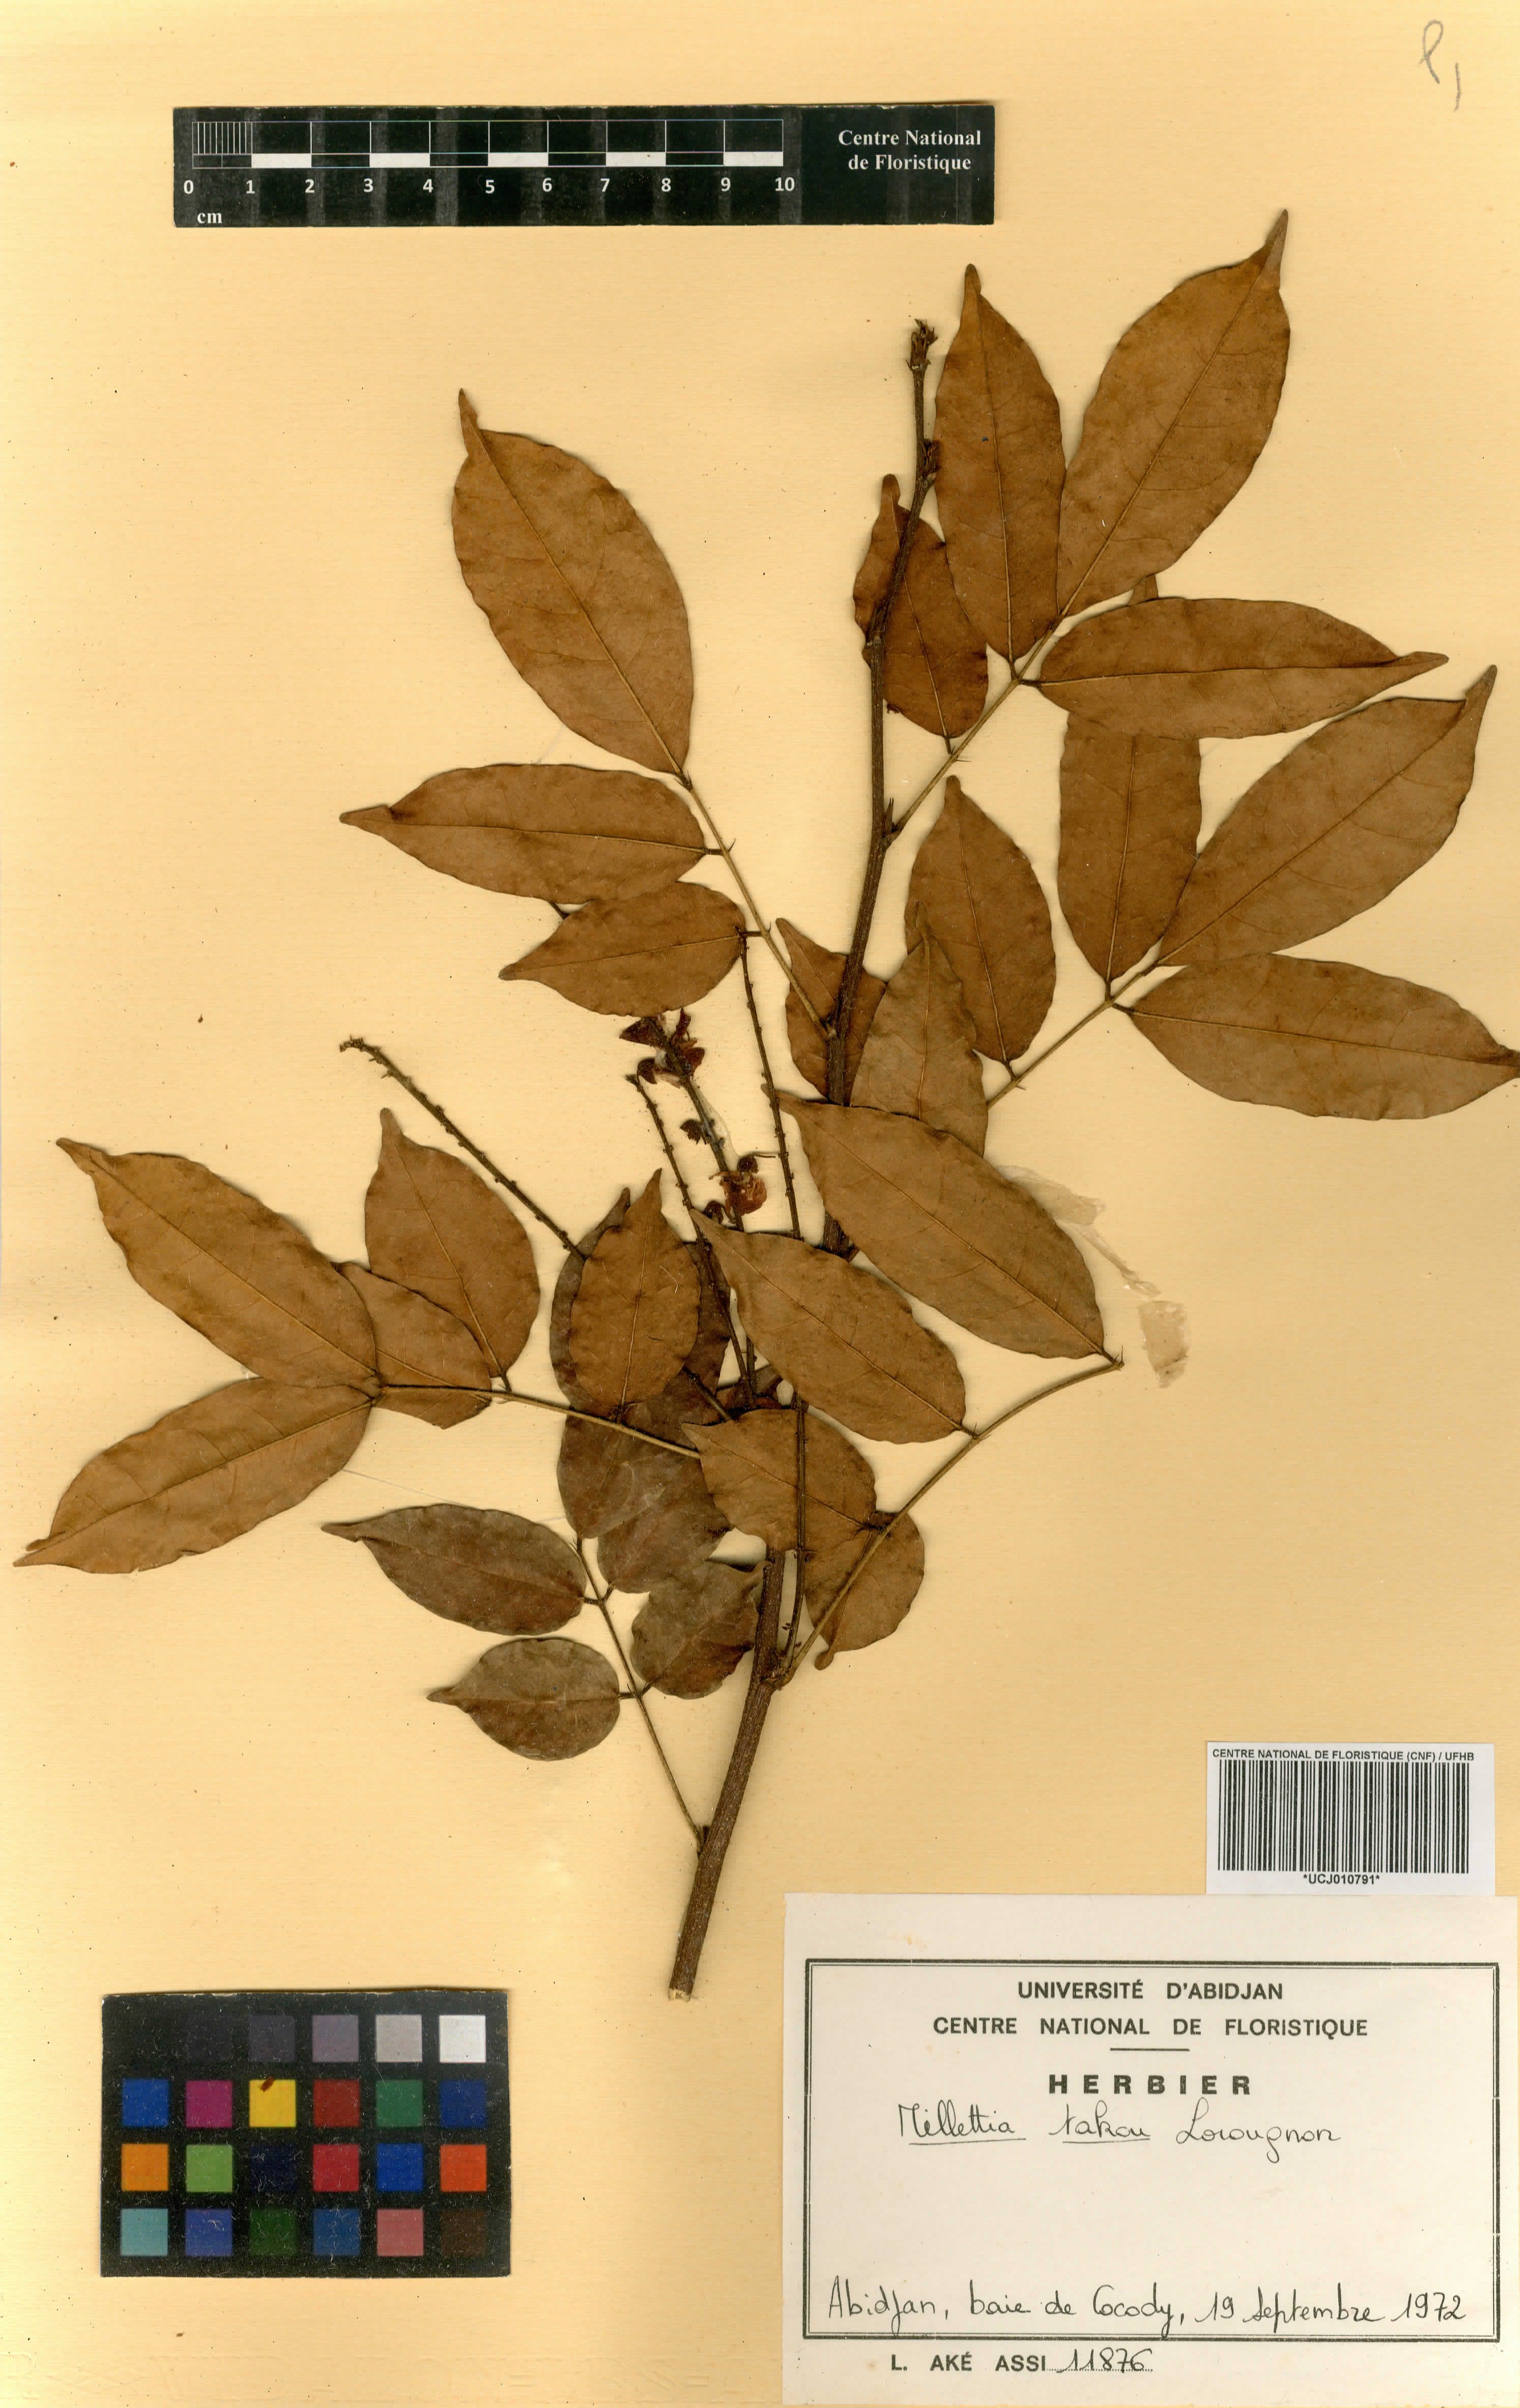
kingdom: Plantae
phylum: Tracheophyta
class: Magnoliopsida
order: Fabales
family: Fabaceae
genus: Millettia
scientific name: Millettia takou
